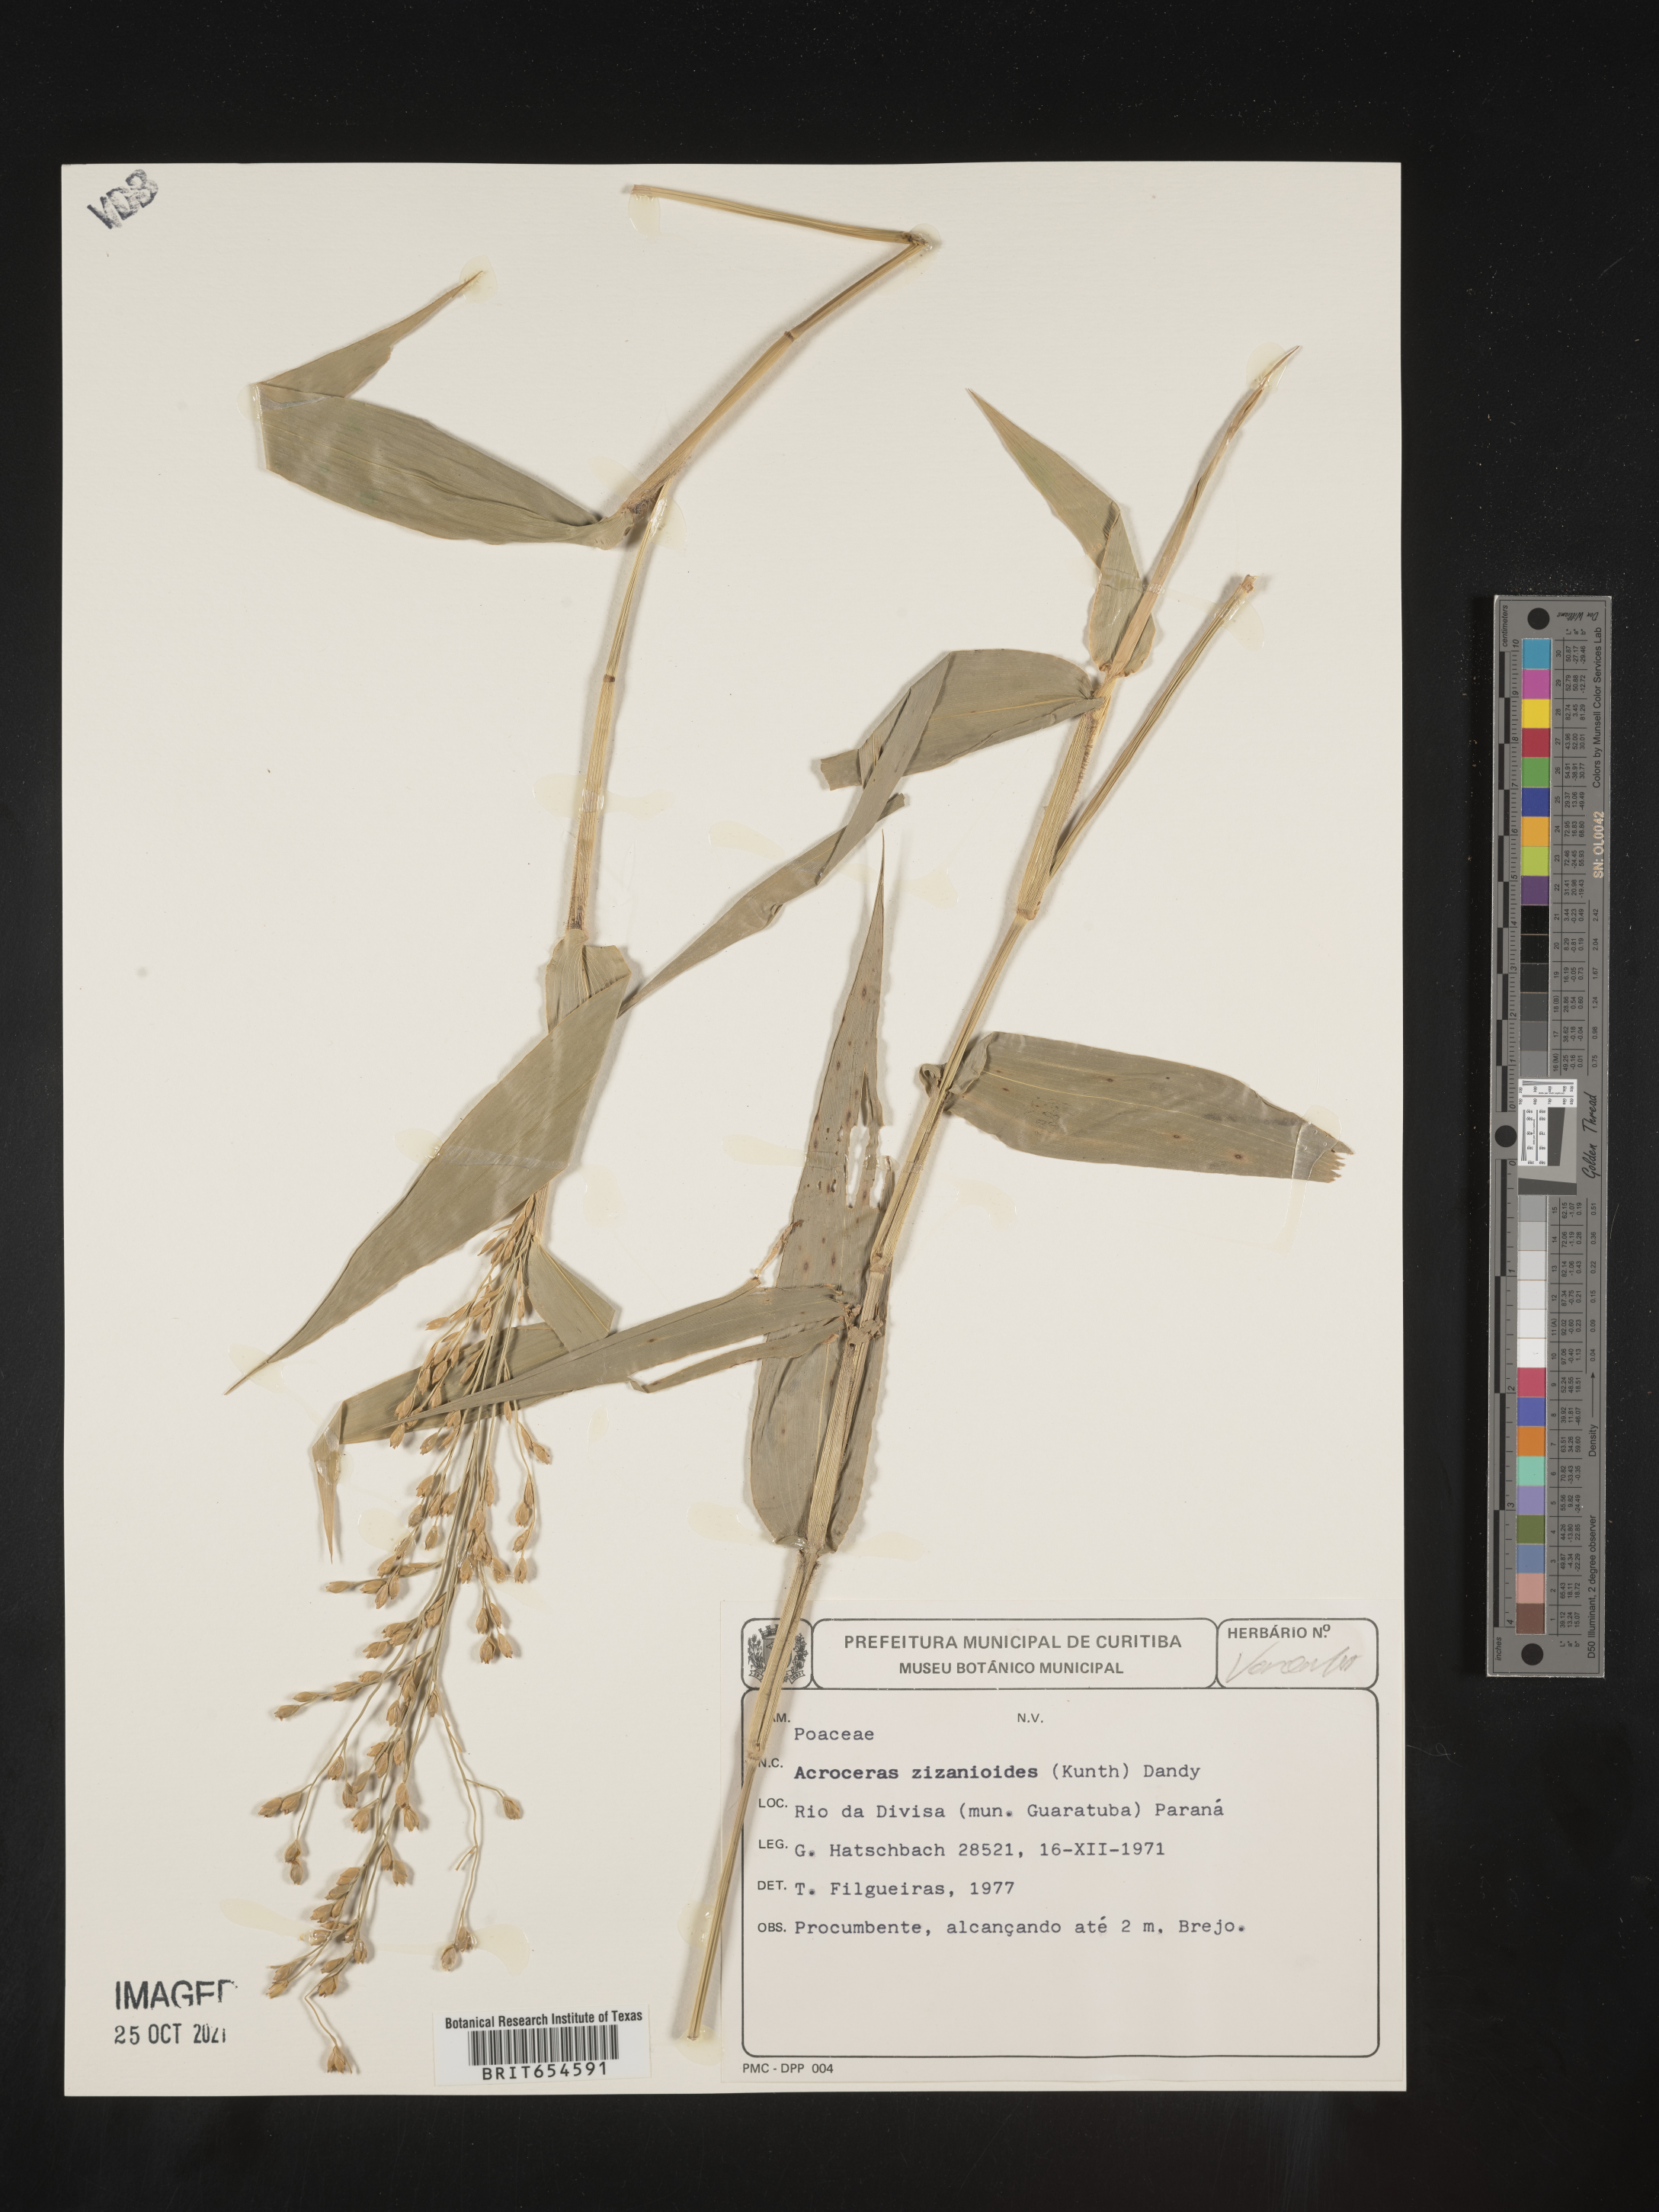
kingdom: Plantae
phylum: Tracheophyta
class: Liliopsida
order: Poales
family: Poaceae
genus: Acroceras
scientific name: Acroceras
